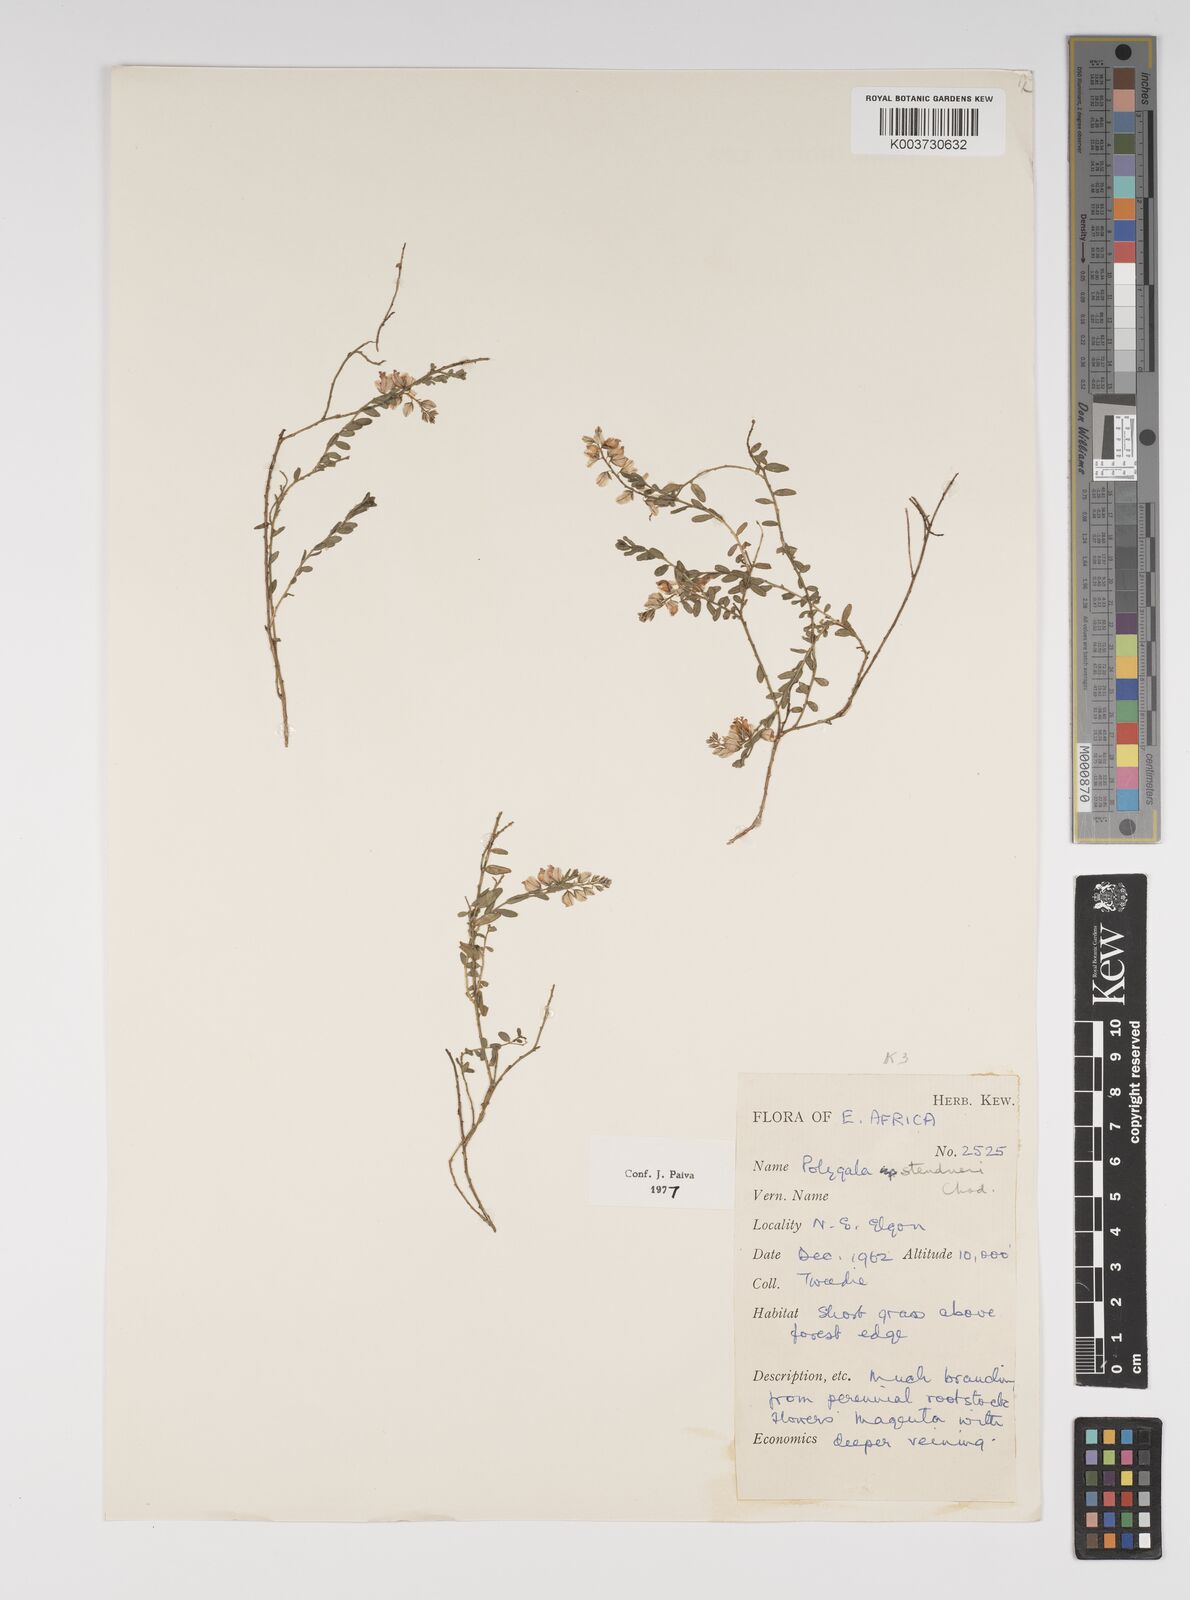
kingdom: Plantae
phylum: Tracheophyta
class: Magnoliopsida
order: Fabales
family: Polygalaceae
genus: Polygala
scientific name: Polygala steudneri
